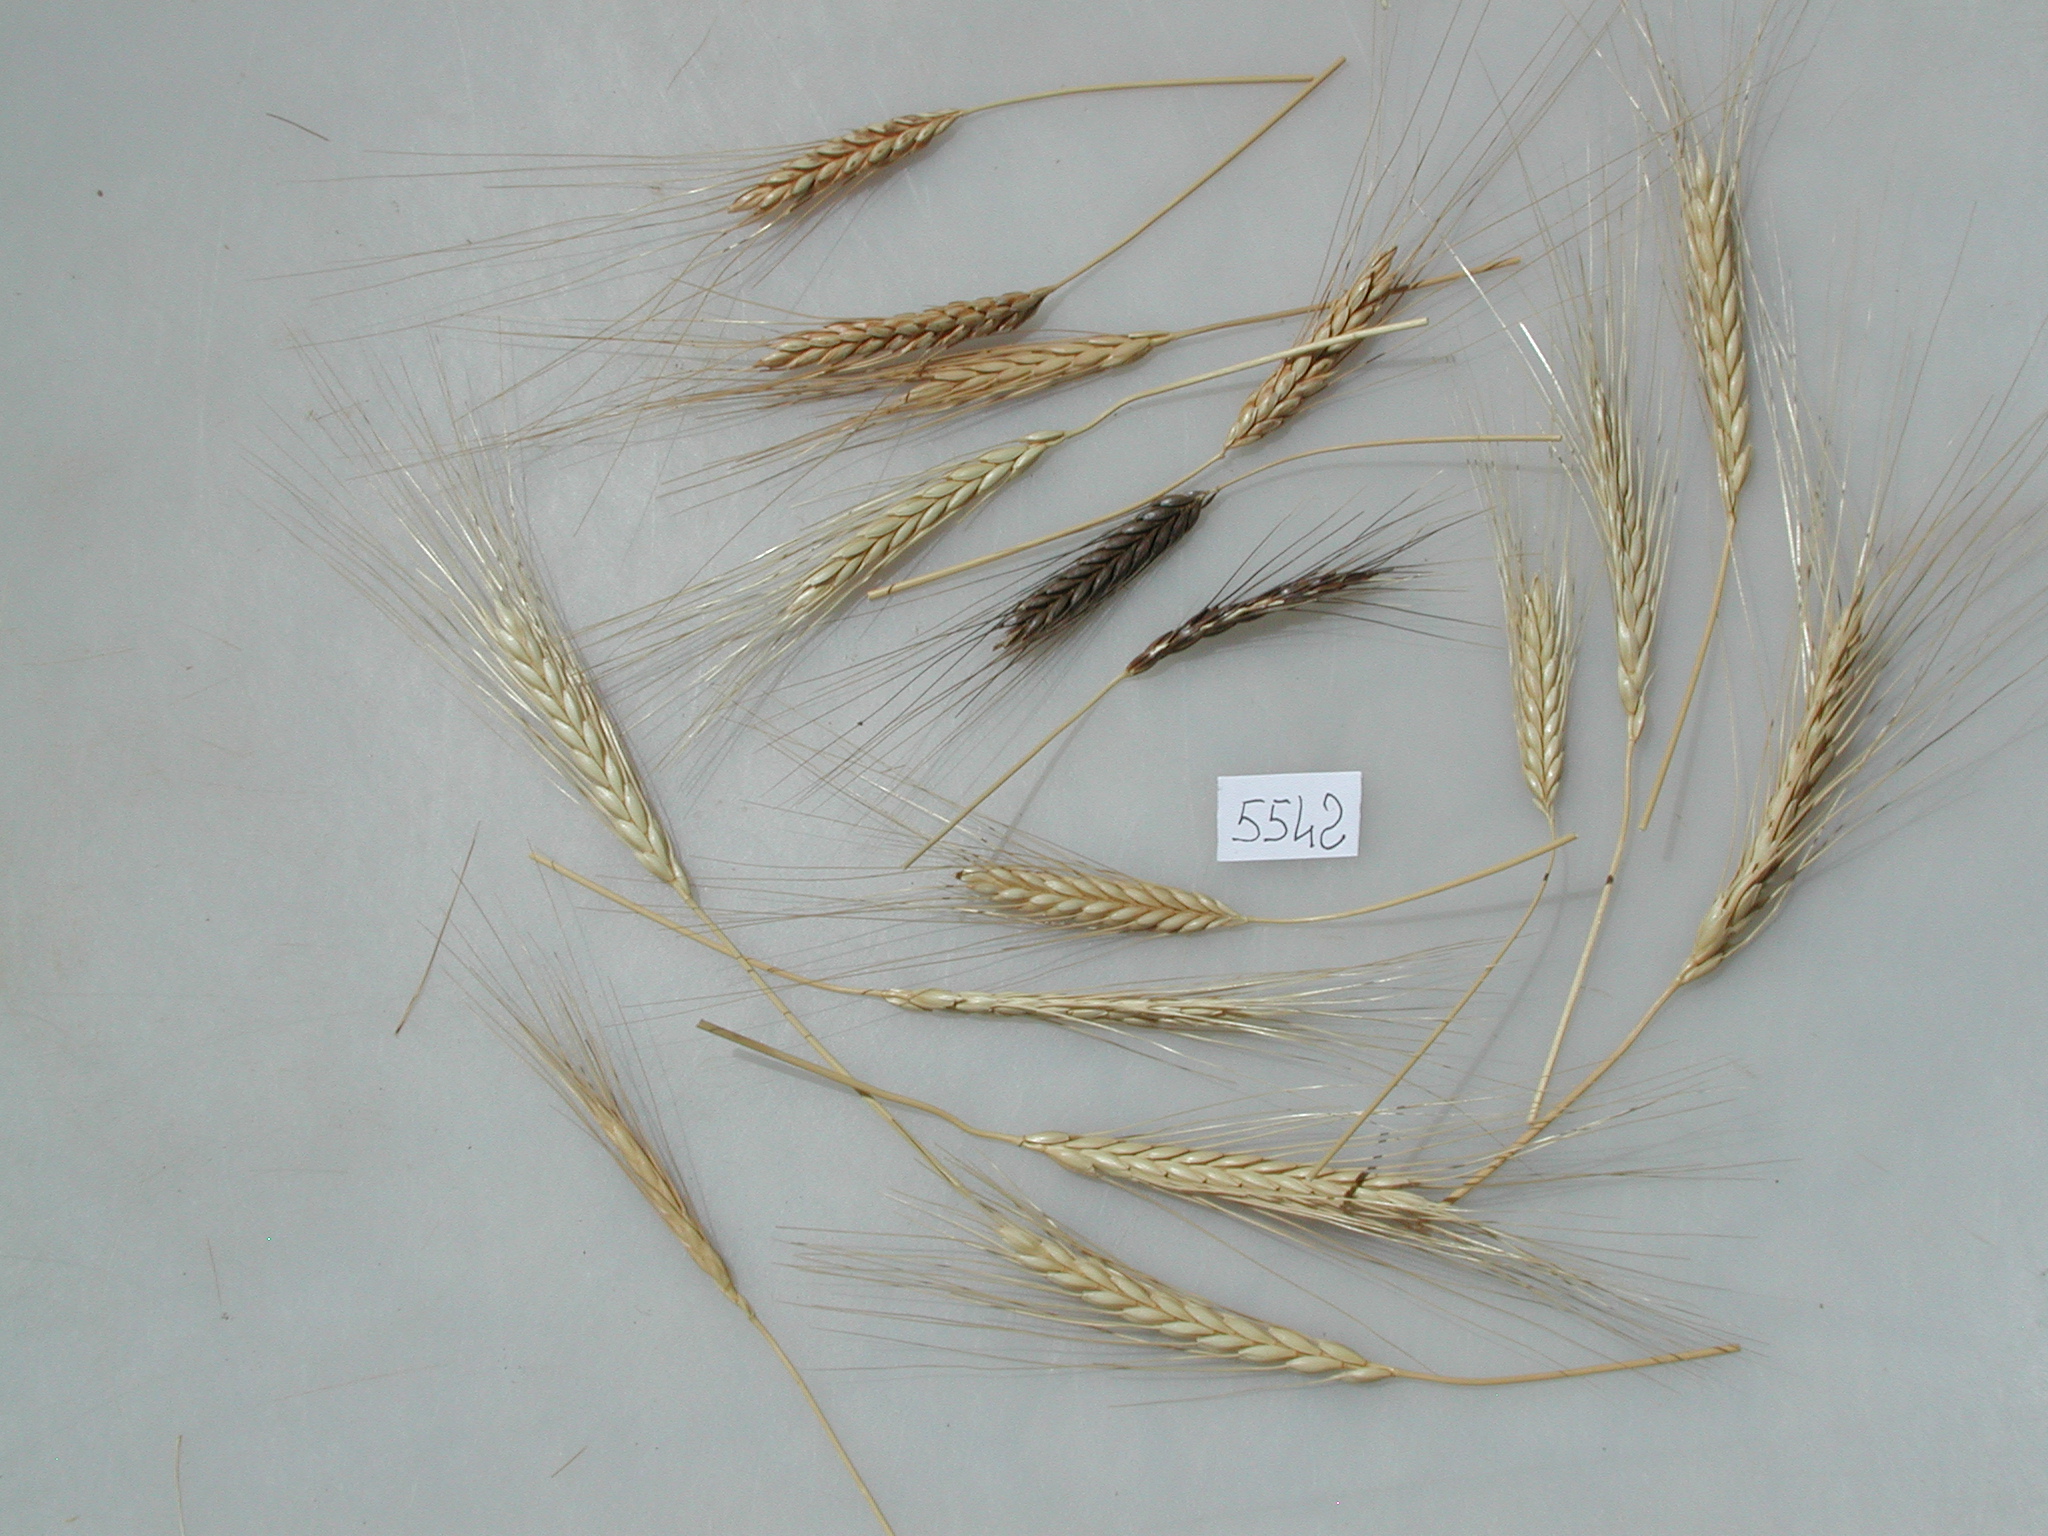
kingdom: Plantae
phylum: Tracheophyta
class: Liliopsida
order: Poales
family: Poaceae
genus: Triticum
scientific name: Triticum turgidum
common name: Emmer Wheat
